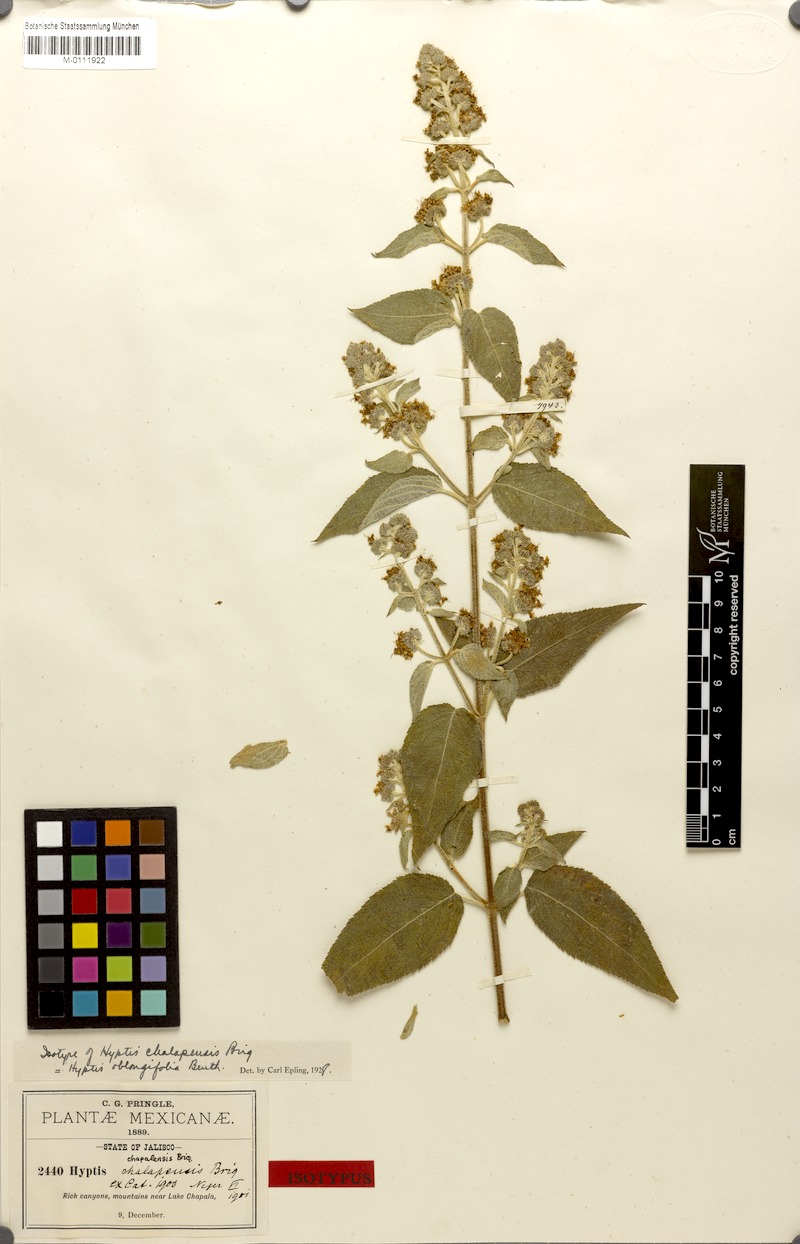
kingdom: Plantae
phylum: Tracheophyta
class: Magnoliopsida
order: Lamiales
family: Lamiaceae
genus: Mesosphaerum
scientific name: Mesosphaerum oblongifolium
